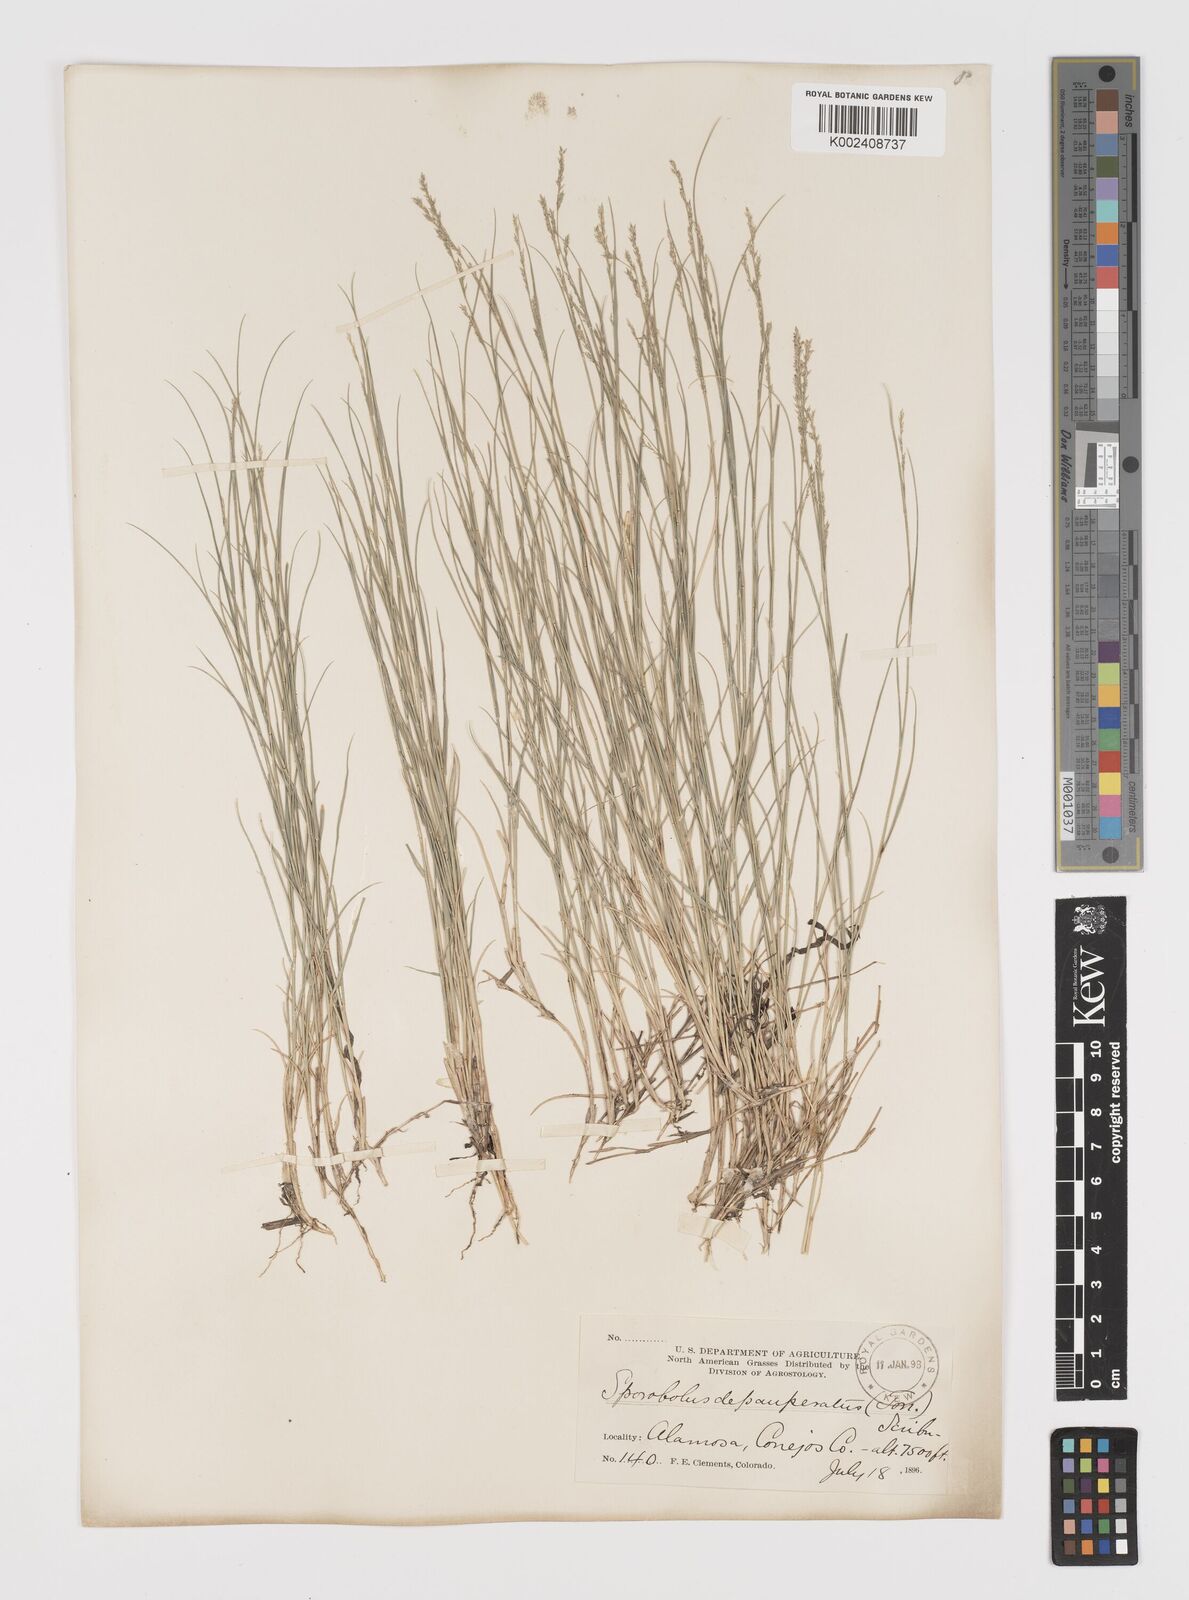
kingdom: Plantae
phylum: Tracheophyta
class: Liliopsida
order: Poales
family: Poaceae
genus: Muhlenbergia
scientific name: Muhlenbergia richardsonis
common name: Mat muhly
